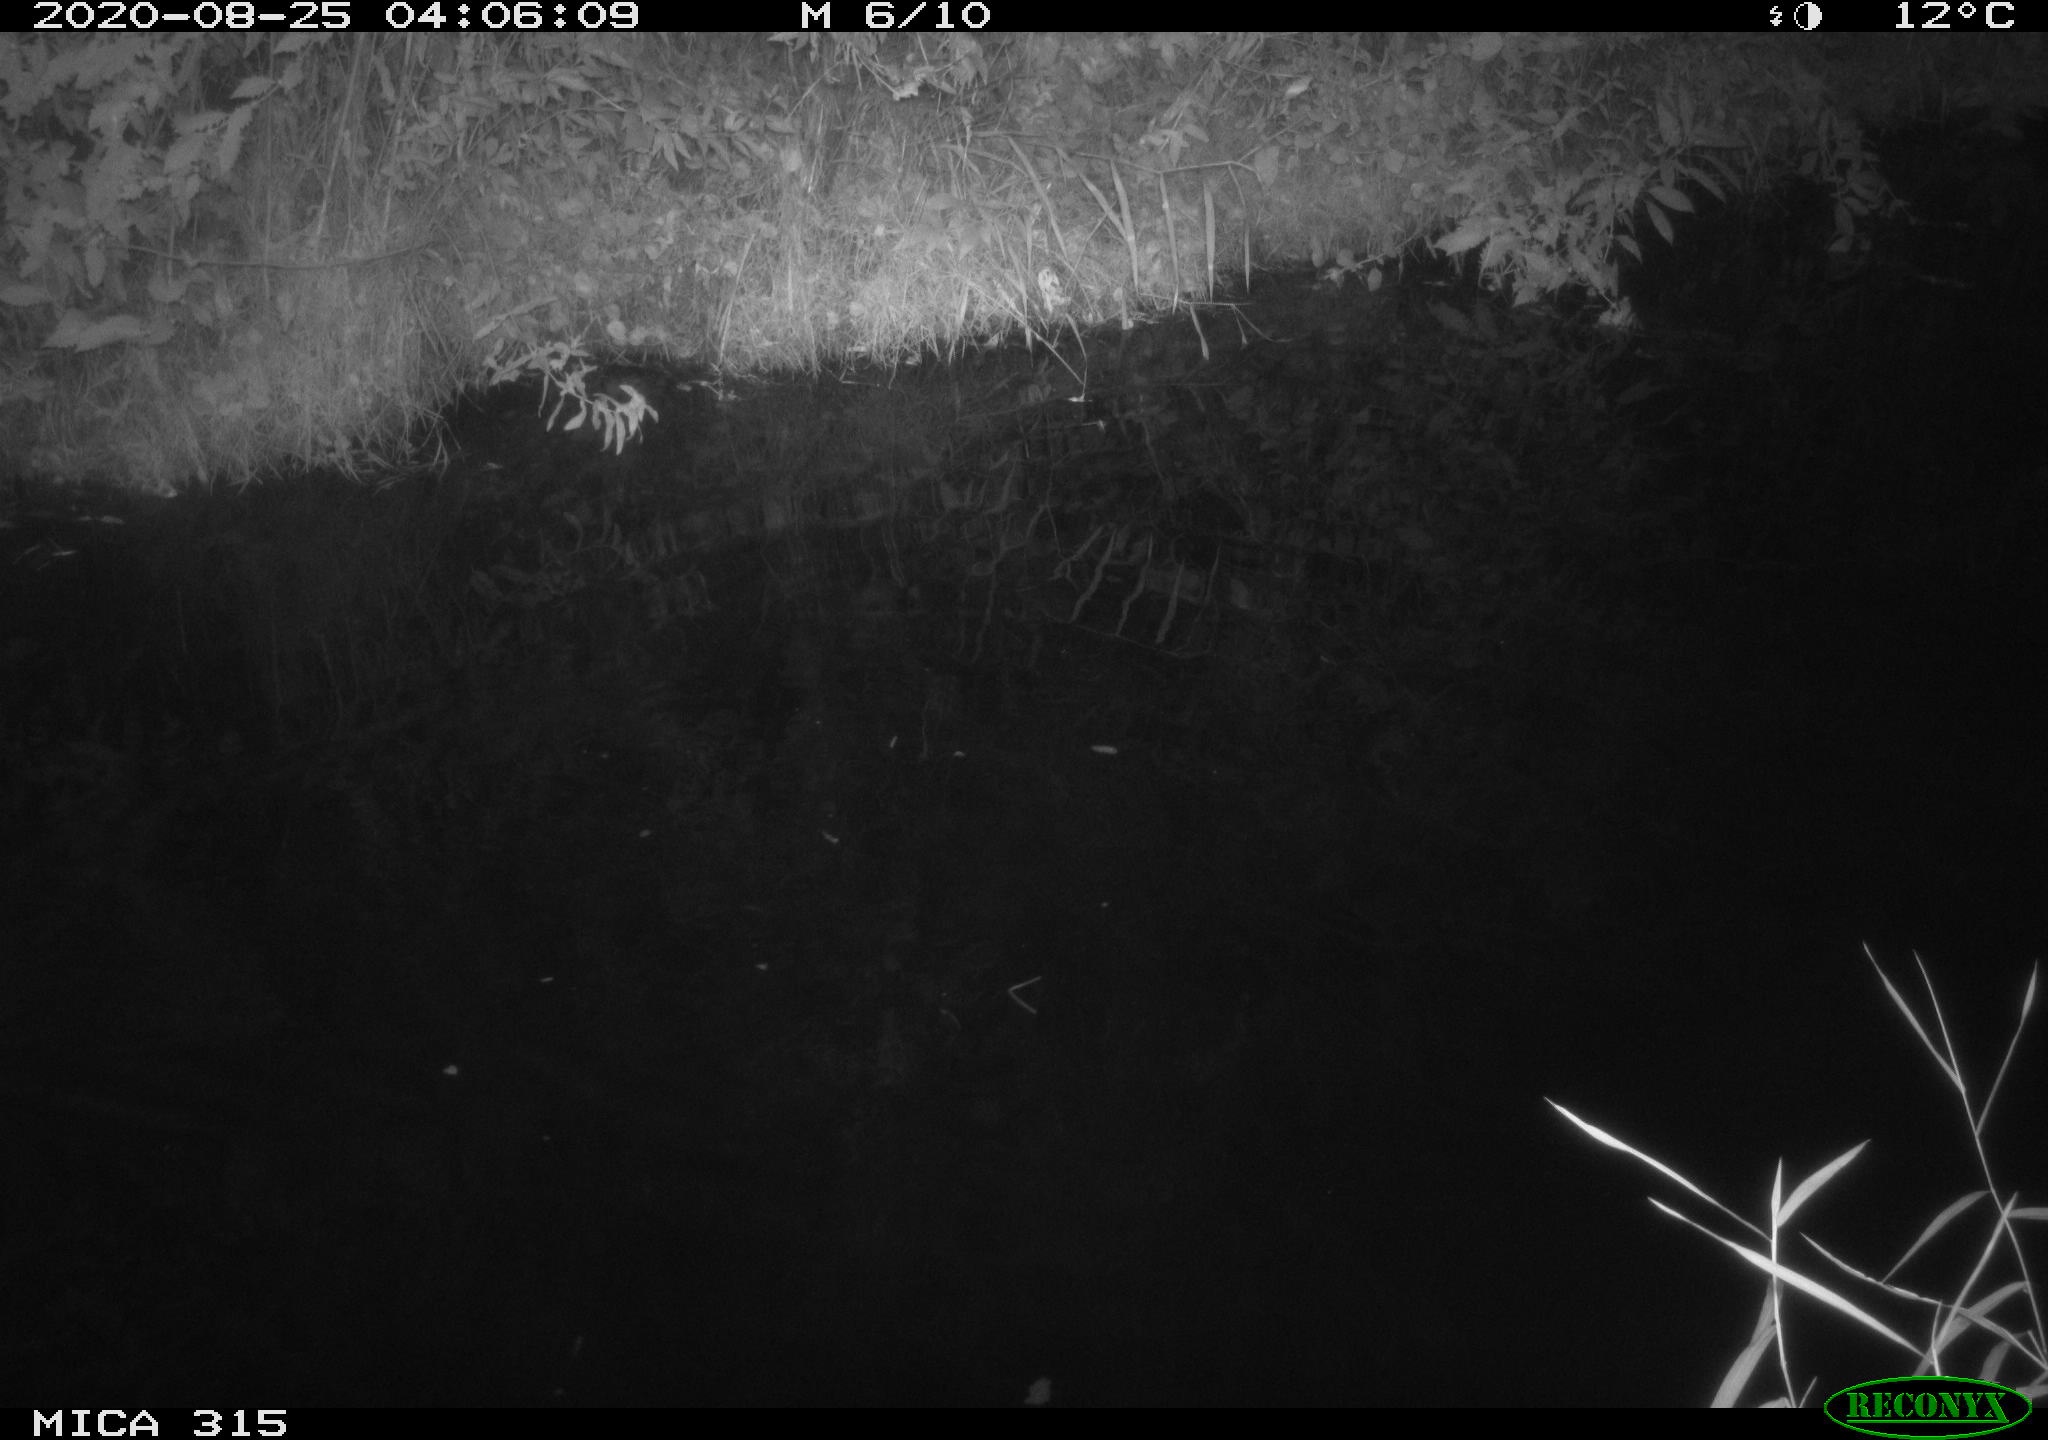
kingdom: Animalia
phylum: Chordata
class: Aves
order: Anseriformes
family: Anatidae
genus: Anas
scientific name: Anas platyrhynchos
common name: Mallard
